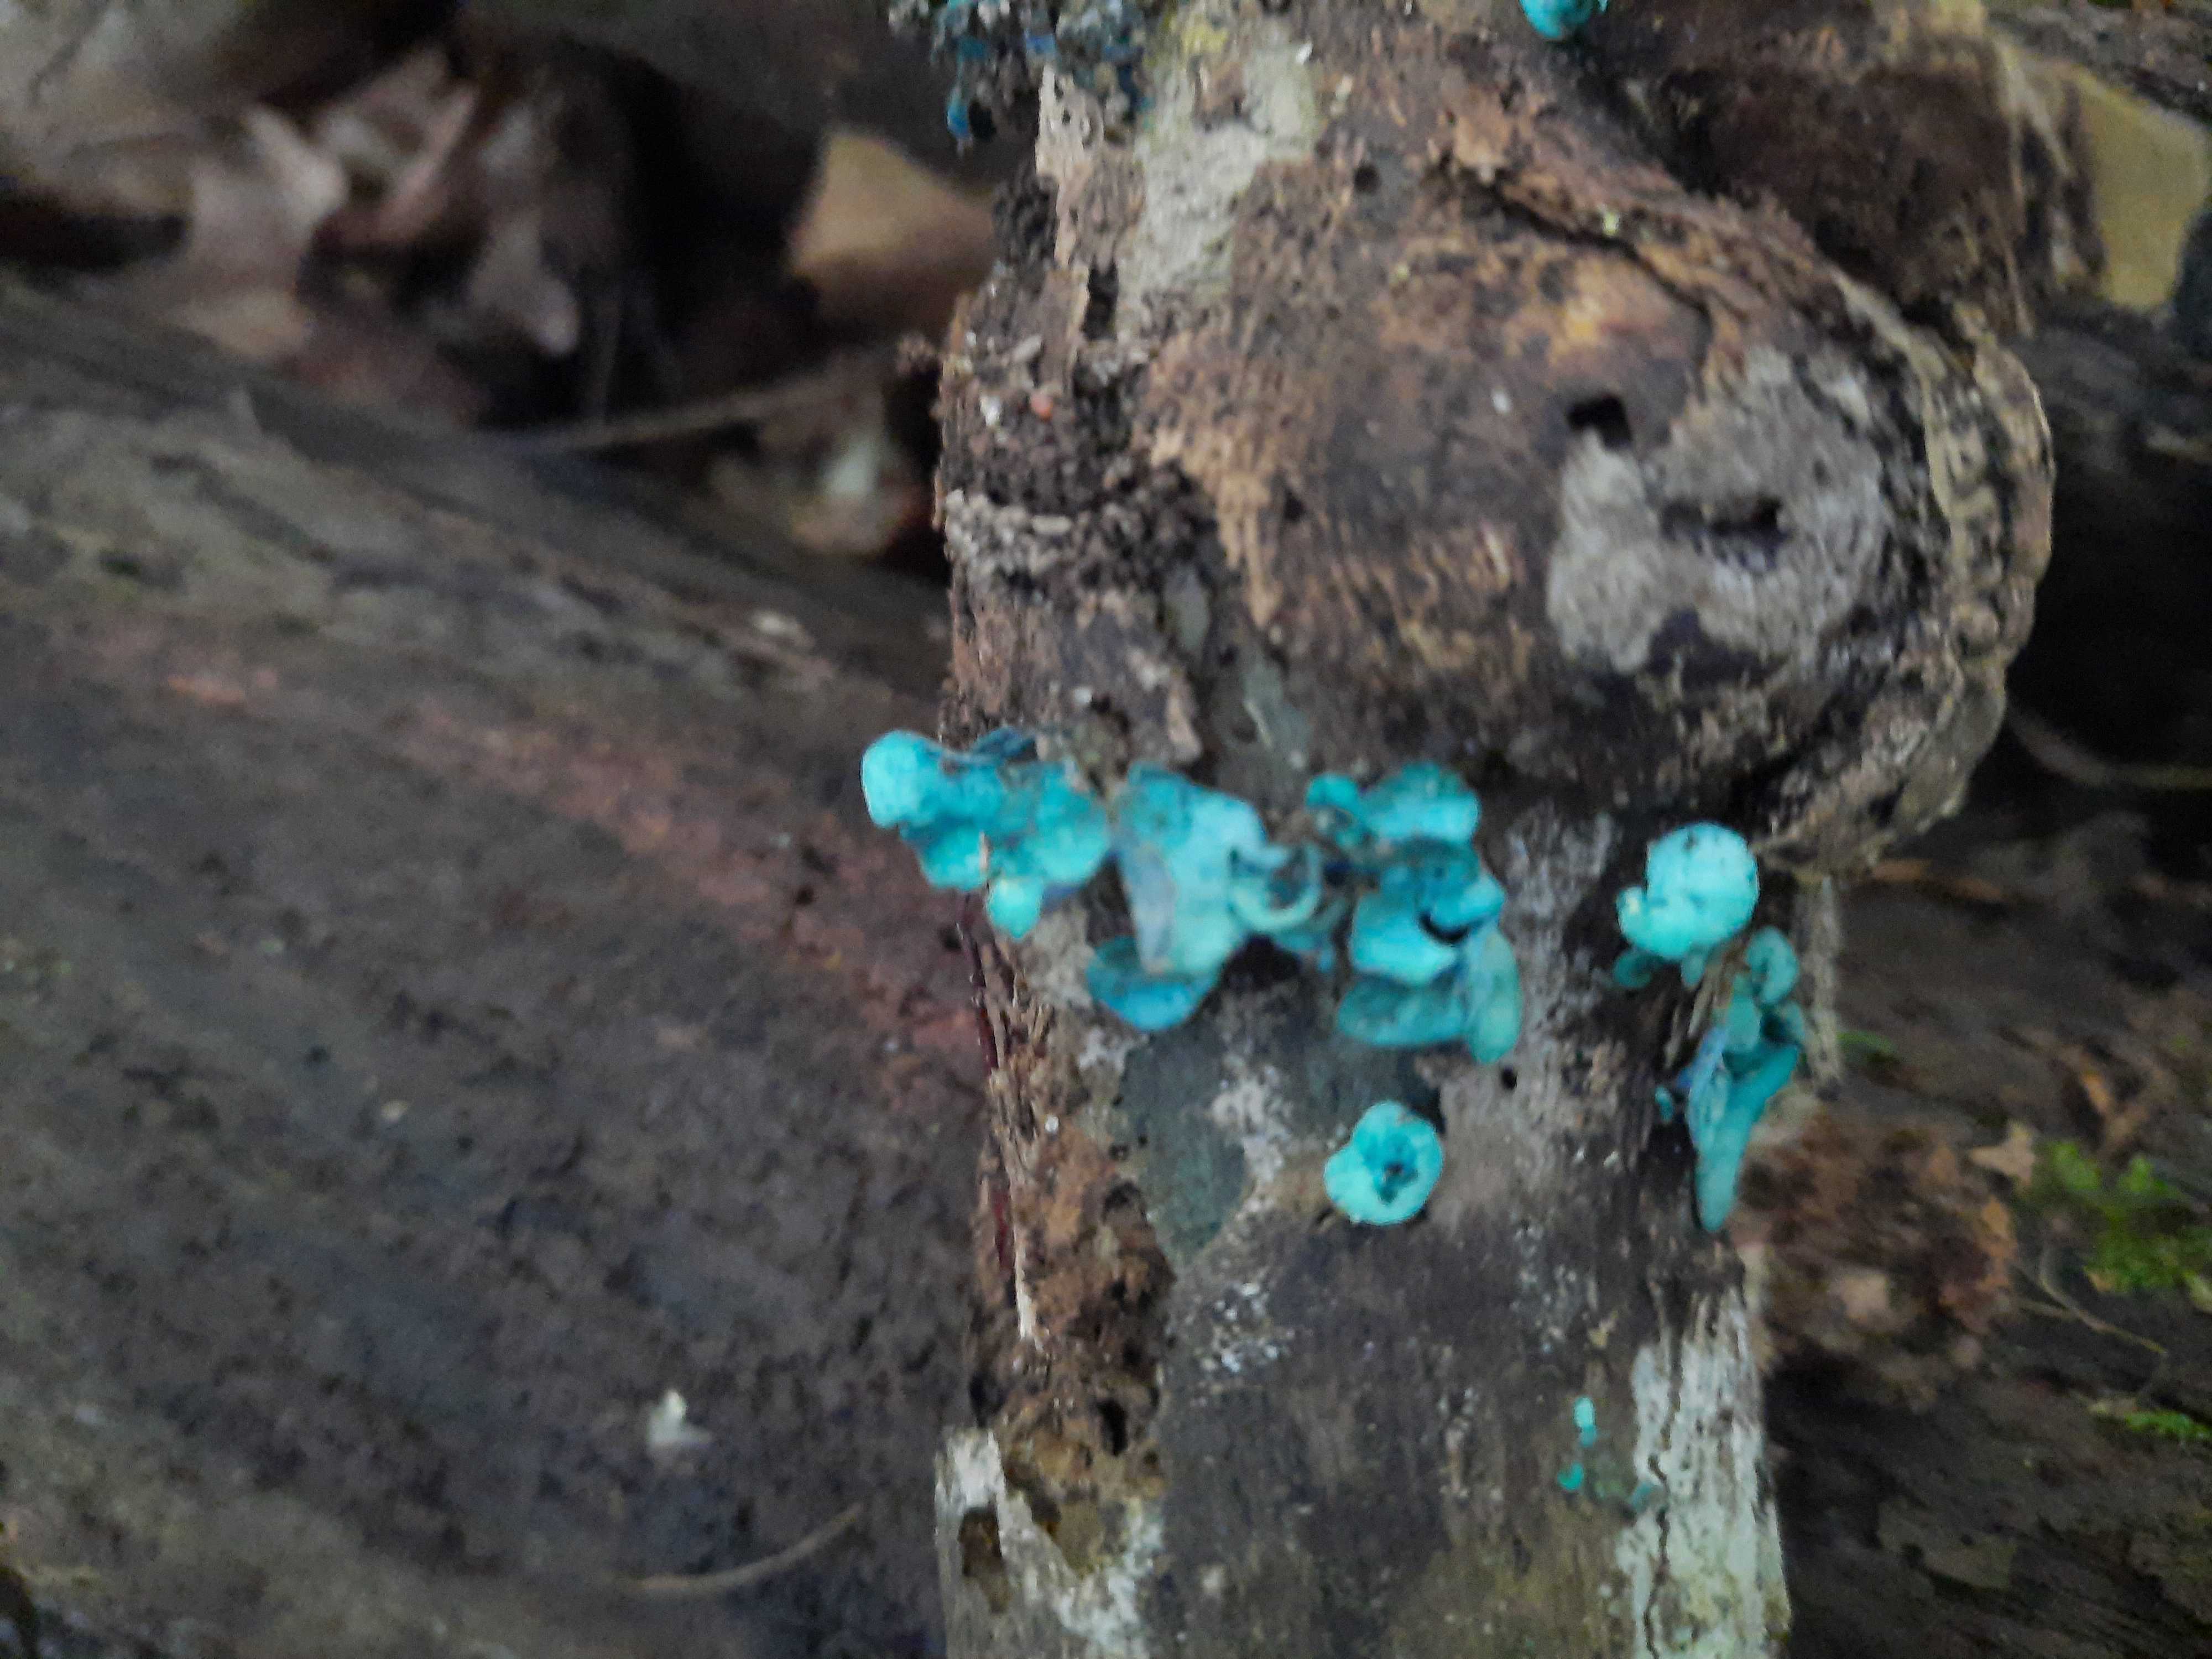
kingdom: Fungi
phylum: Ascomycota
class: Leotiomycetes
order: Helotiales
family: Chlorociboriaceae
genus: Chlorociboria
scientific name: Chlorociboria aeruginascens
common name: almindelig grønskive
